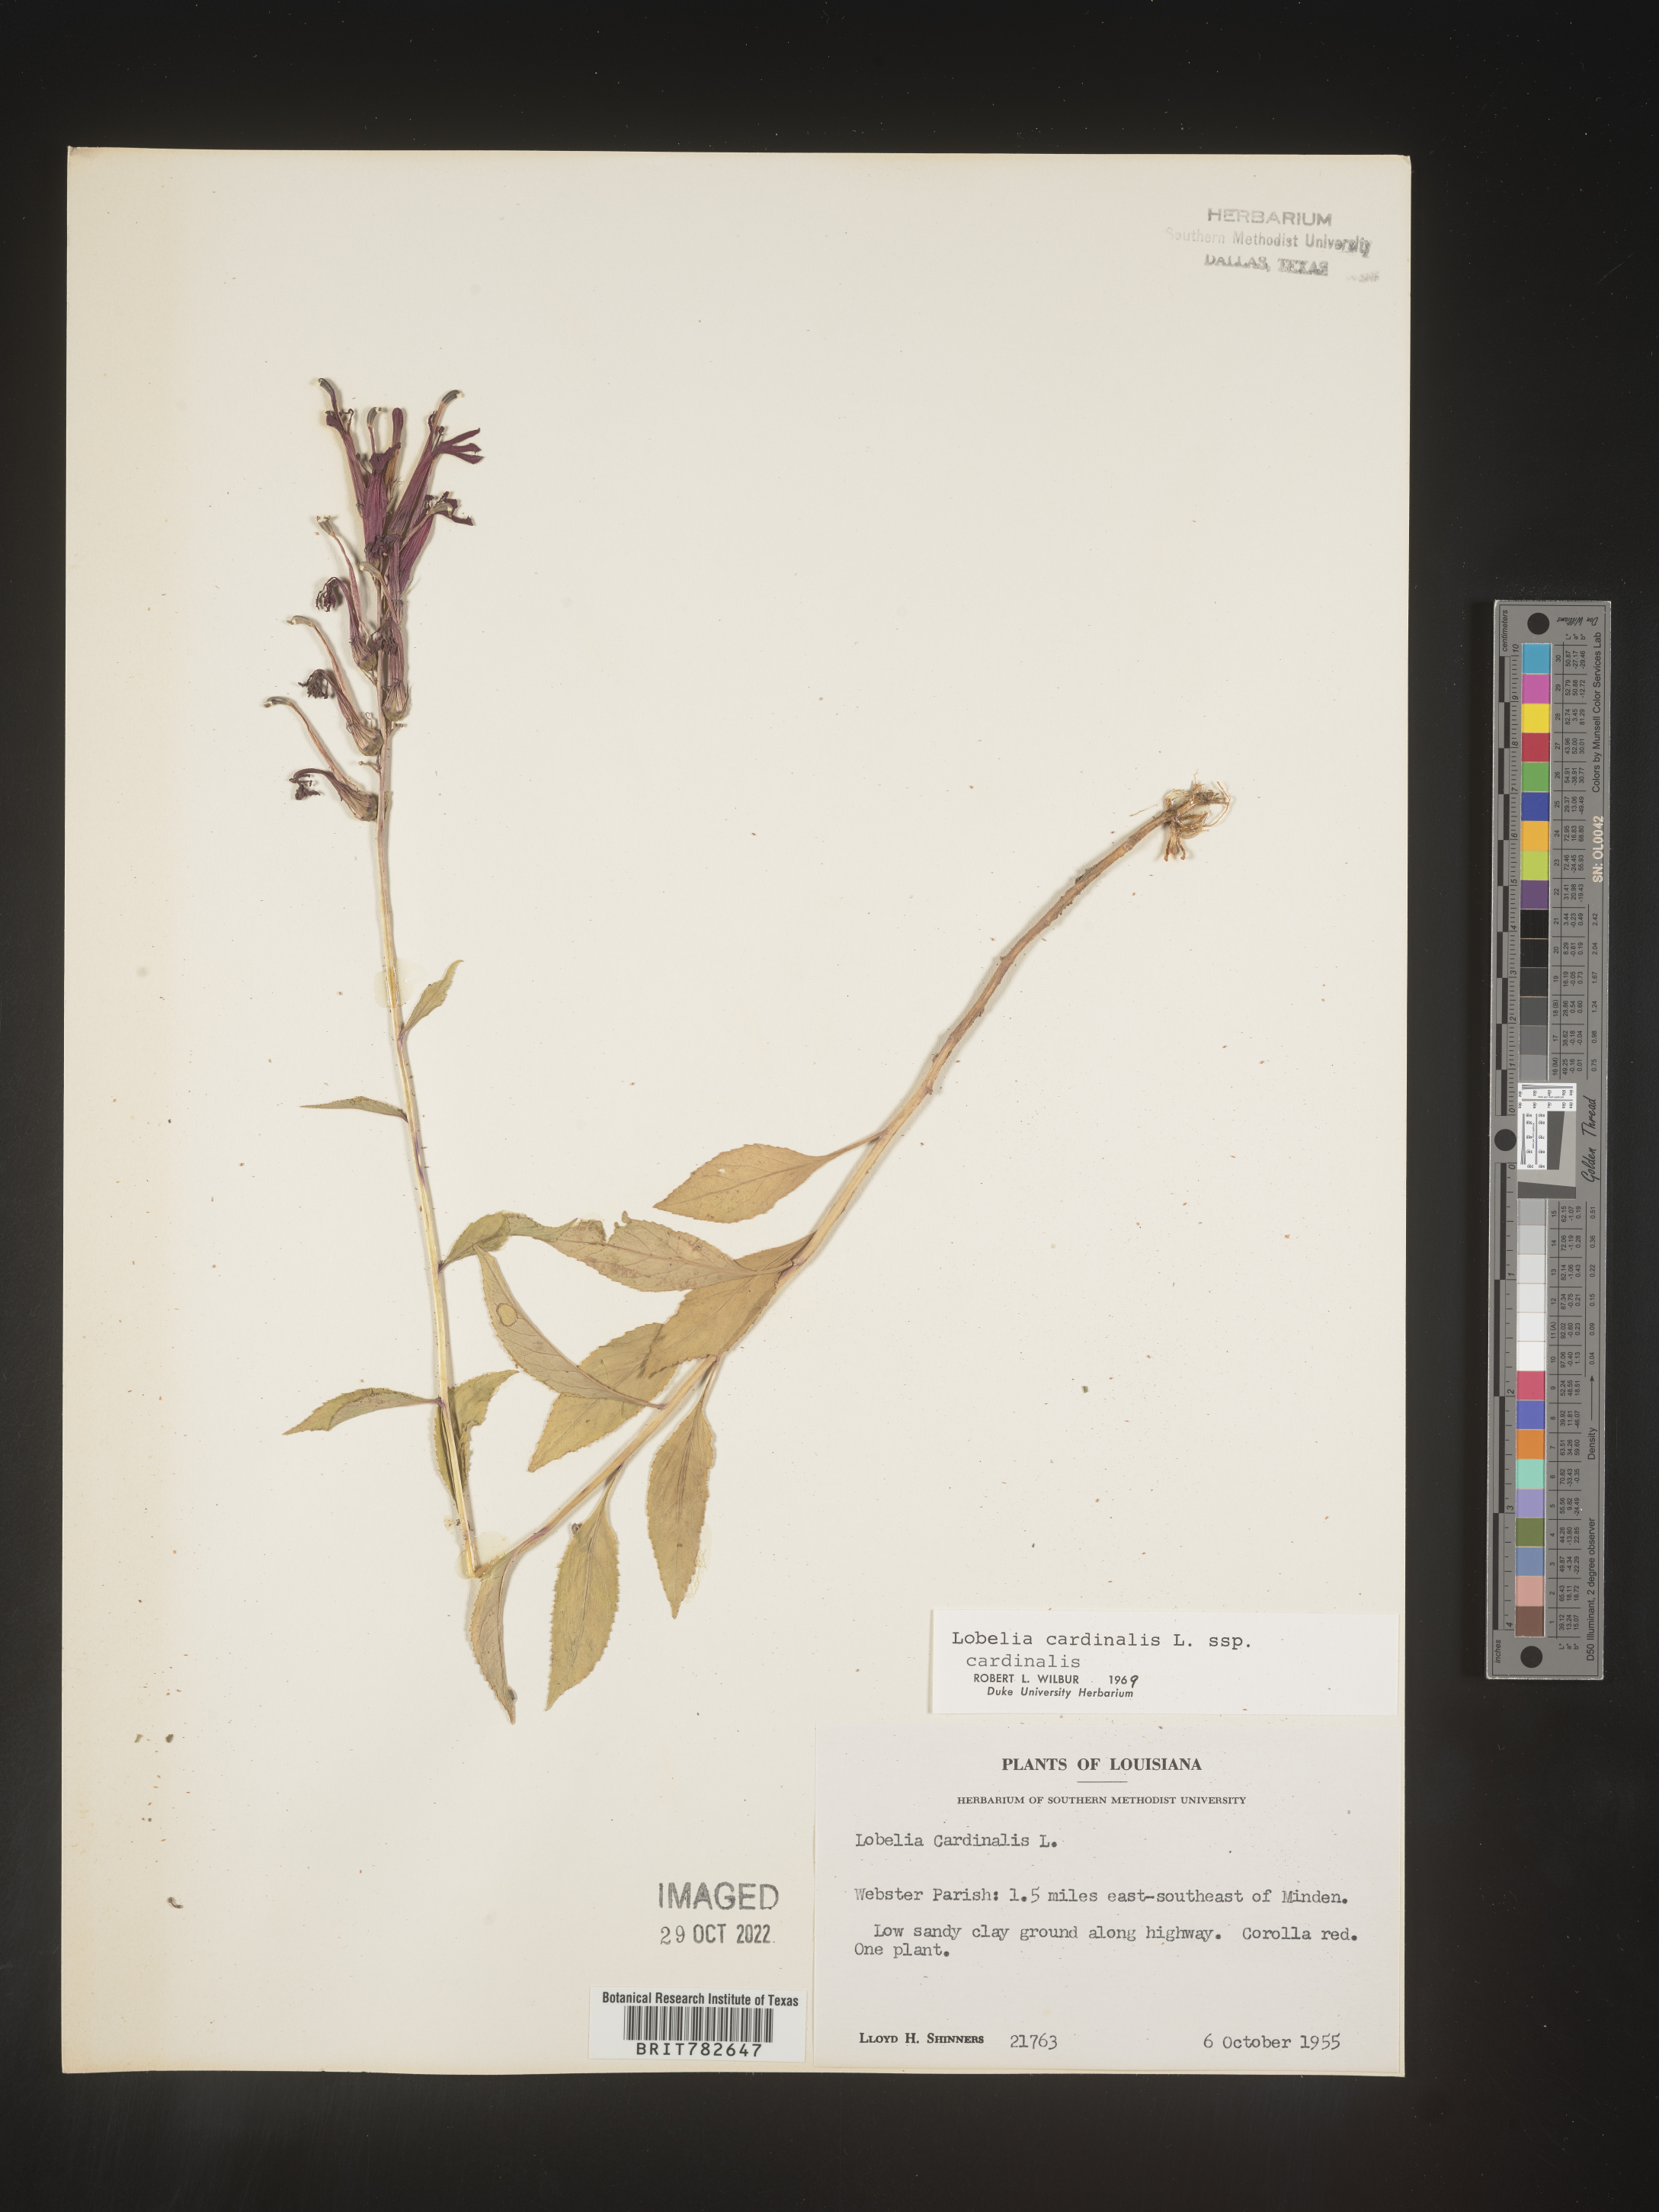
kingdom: Plantae
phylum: Tracheophyta
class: Magnoliopsida
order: Asterales
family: Campanulaceae
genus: Lobelia
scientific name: Lobelia cardinalis
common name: Cardinal flower
